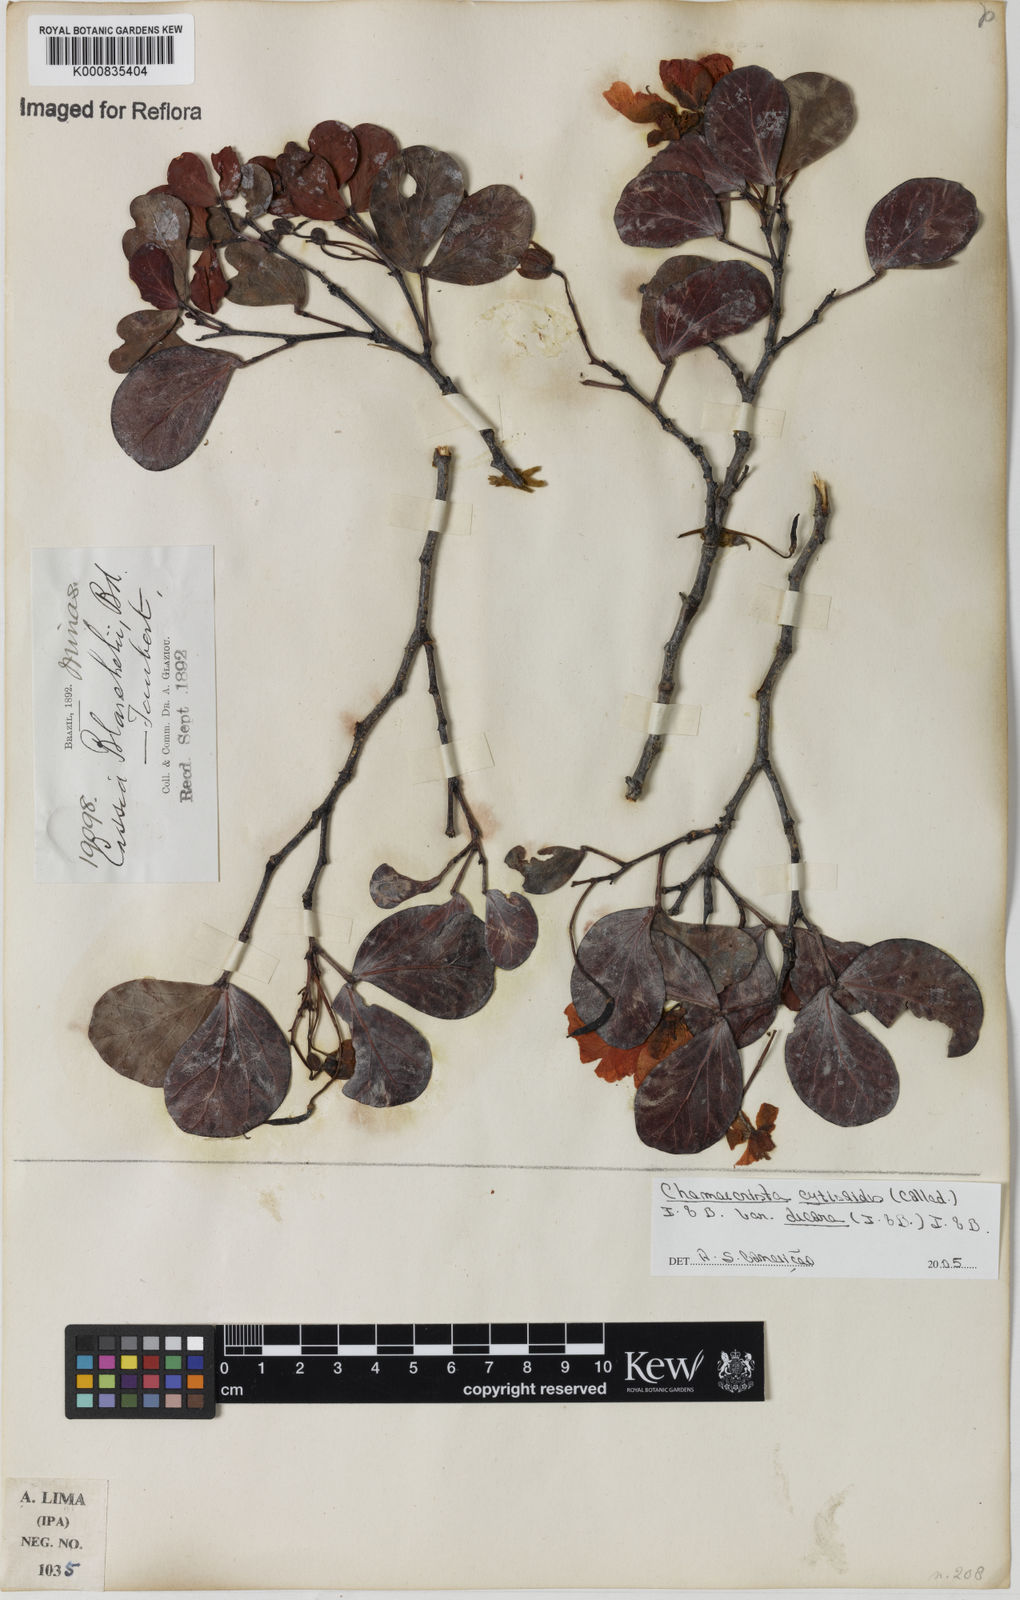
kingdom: Plantae
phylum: Tracheophyta
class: Magnoliopsida
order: Fabales
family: Fabaceae
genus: Chamaecrista
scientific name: Chamaecrista decora
